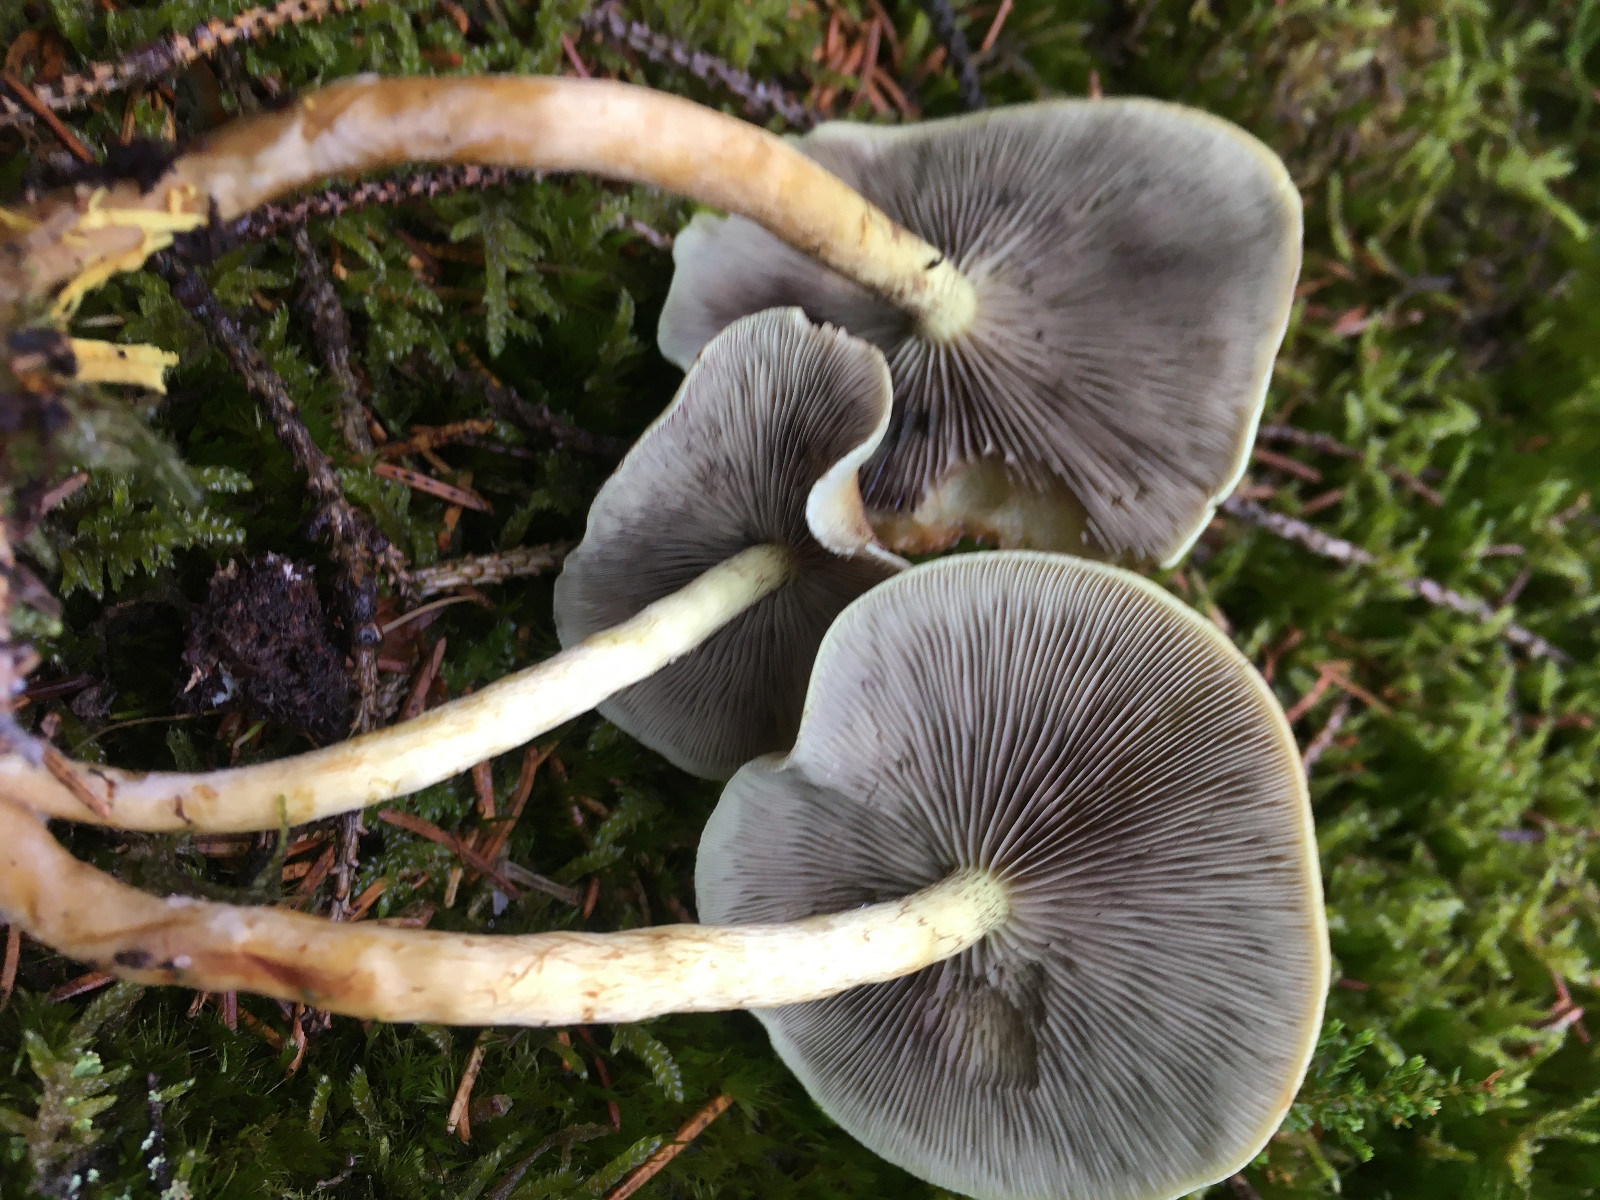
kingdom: Fungi
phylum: Basidiomycota
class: Agaricomycetes
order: Agaricales
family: Strophariaceae
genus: Hypholoma
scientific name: Hypholoma capnoides
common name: gran-svovlhat
